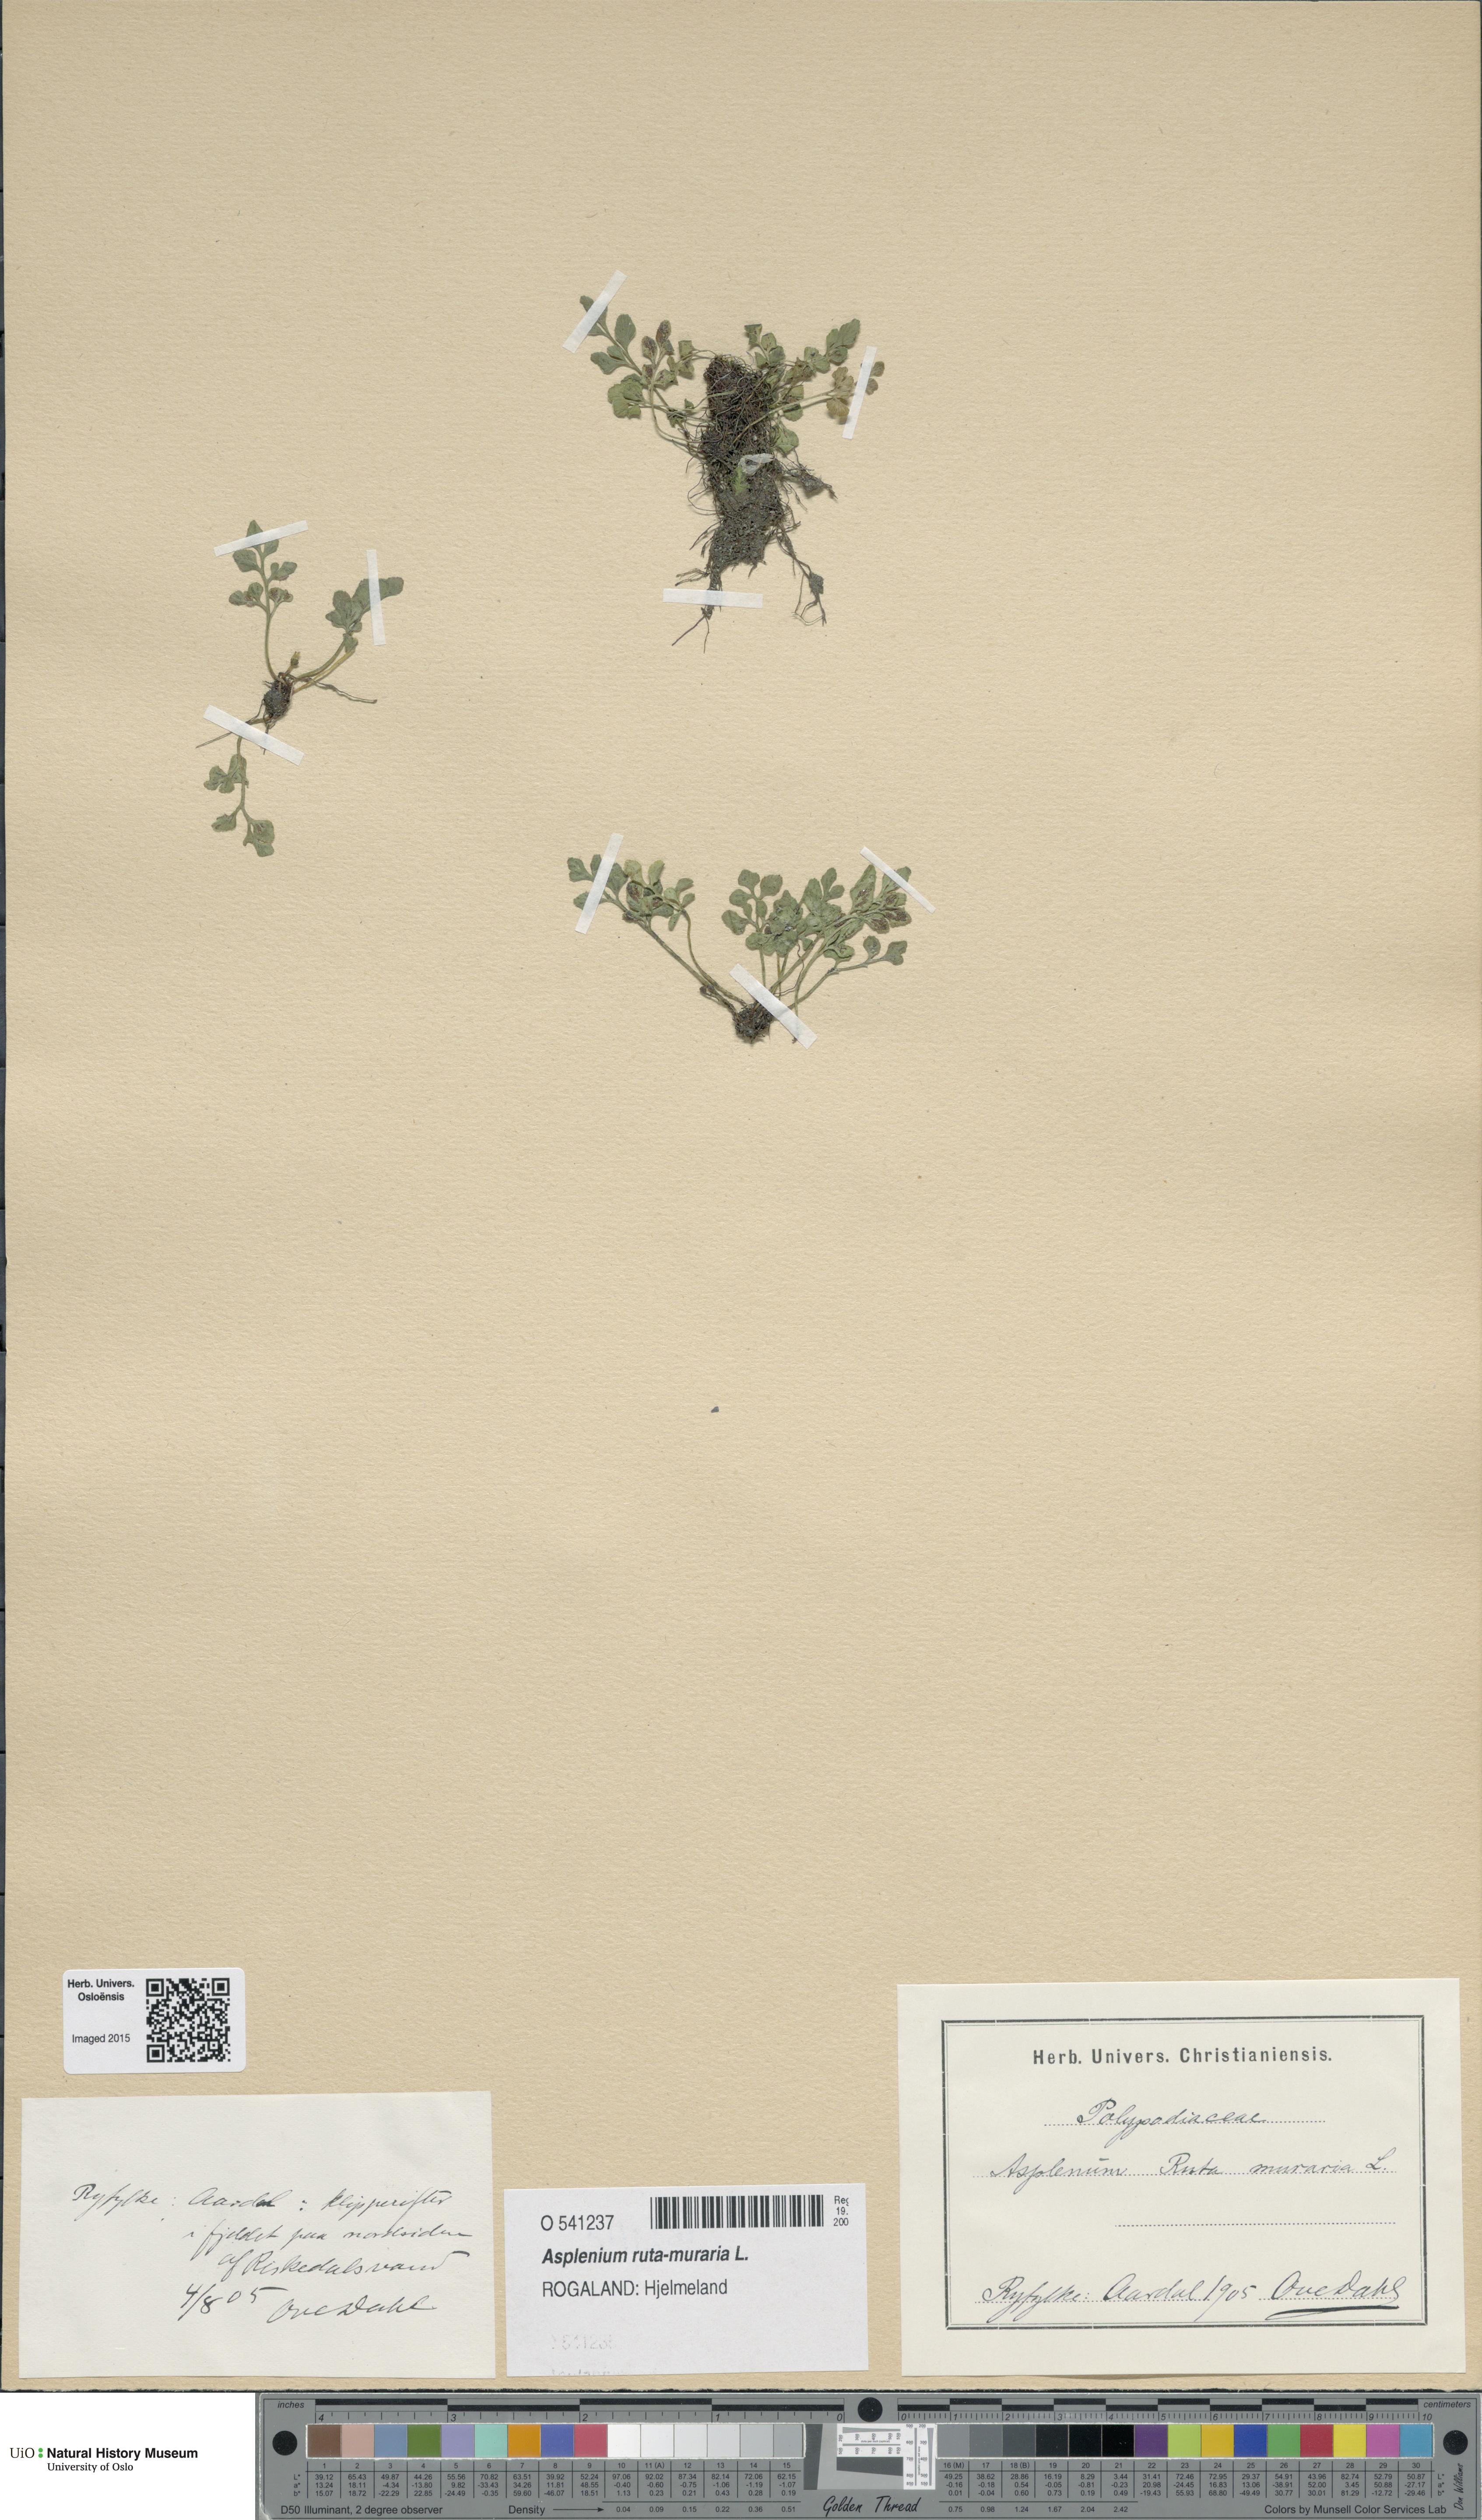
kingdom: Plantae
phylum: Tracheophyta
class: Polypodiopsida
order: Polypodiales
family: Aspleniaceae
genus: Asplenium
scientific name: Asplenium ruta-muraria
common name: Wall-rue
